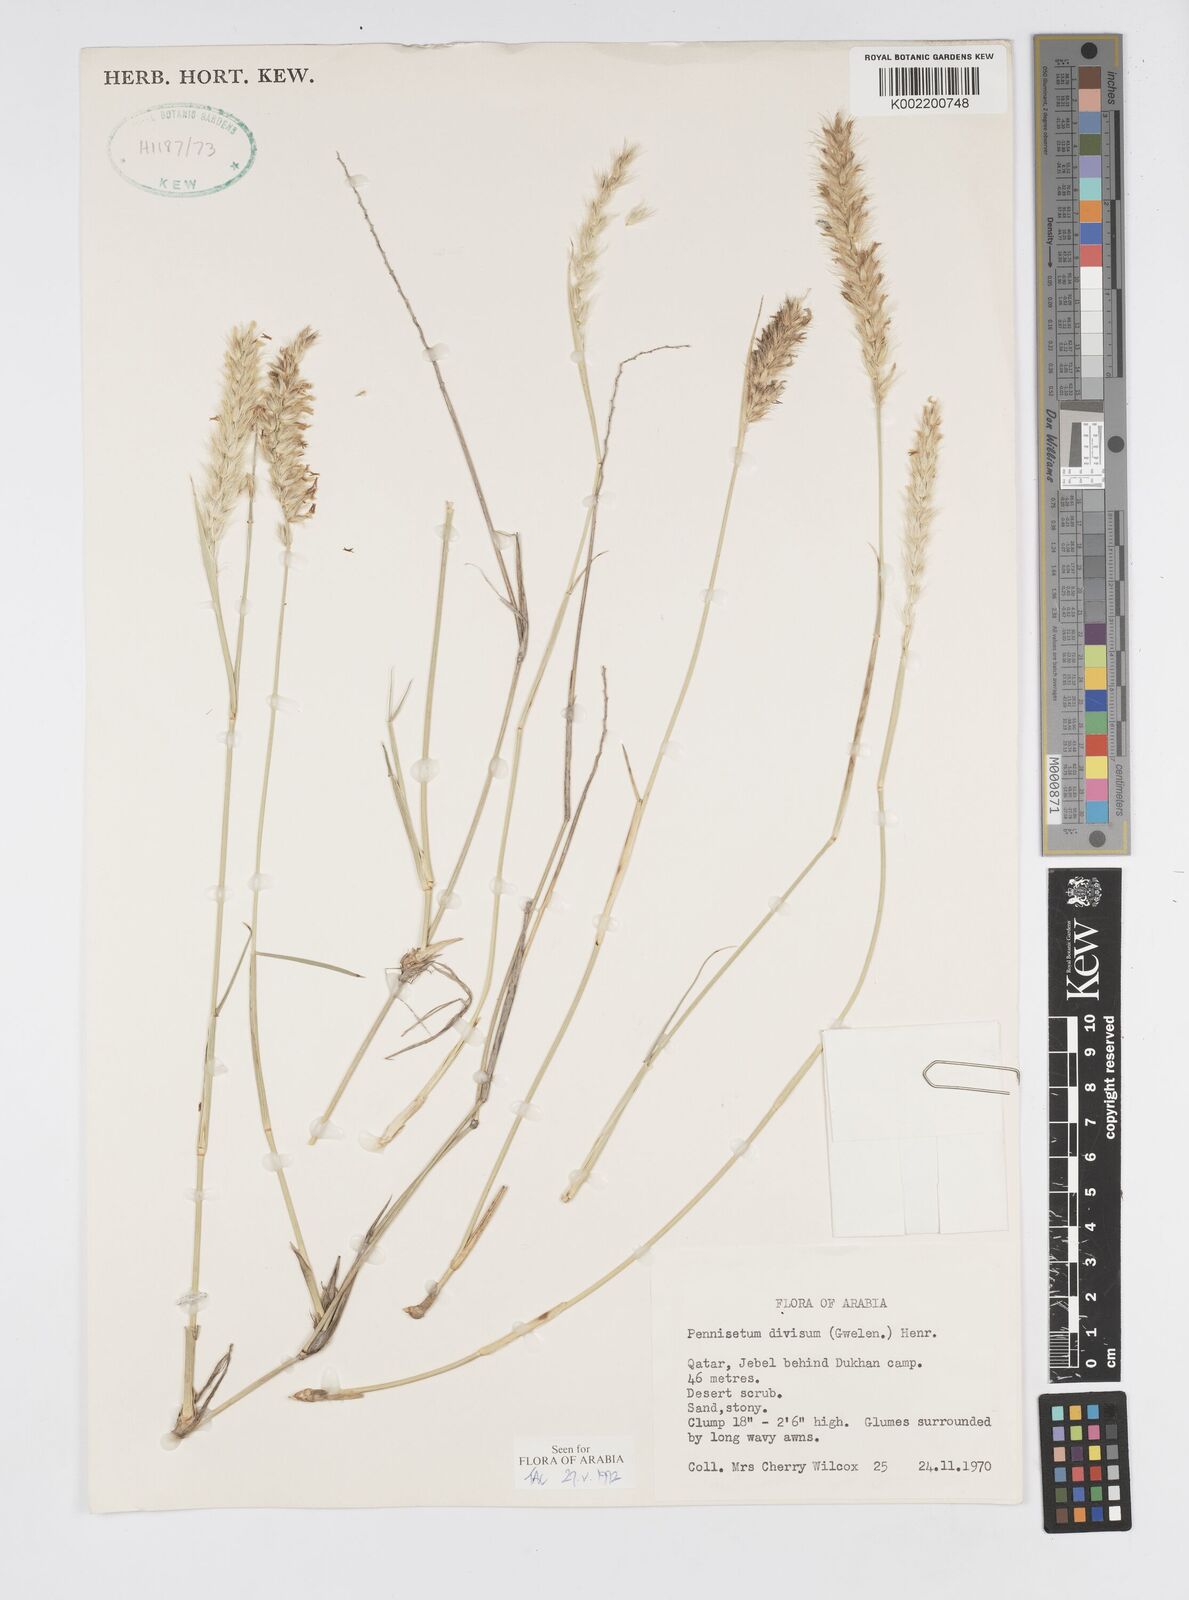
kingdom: Plantae
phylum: Tracheophyta
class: Liliopsida
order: Poales
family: Poaceae
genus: Cenchrus
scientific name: Cenchrus divisus
